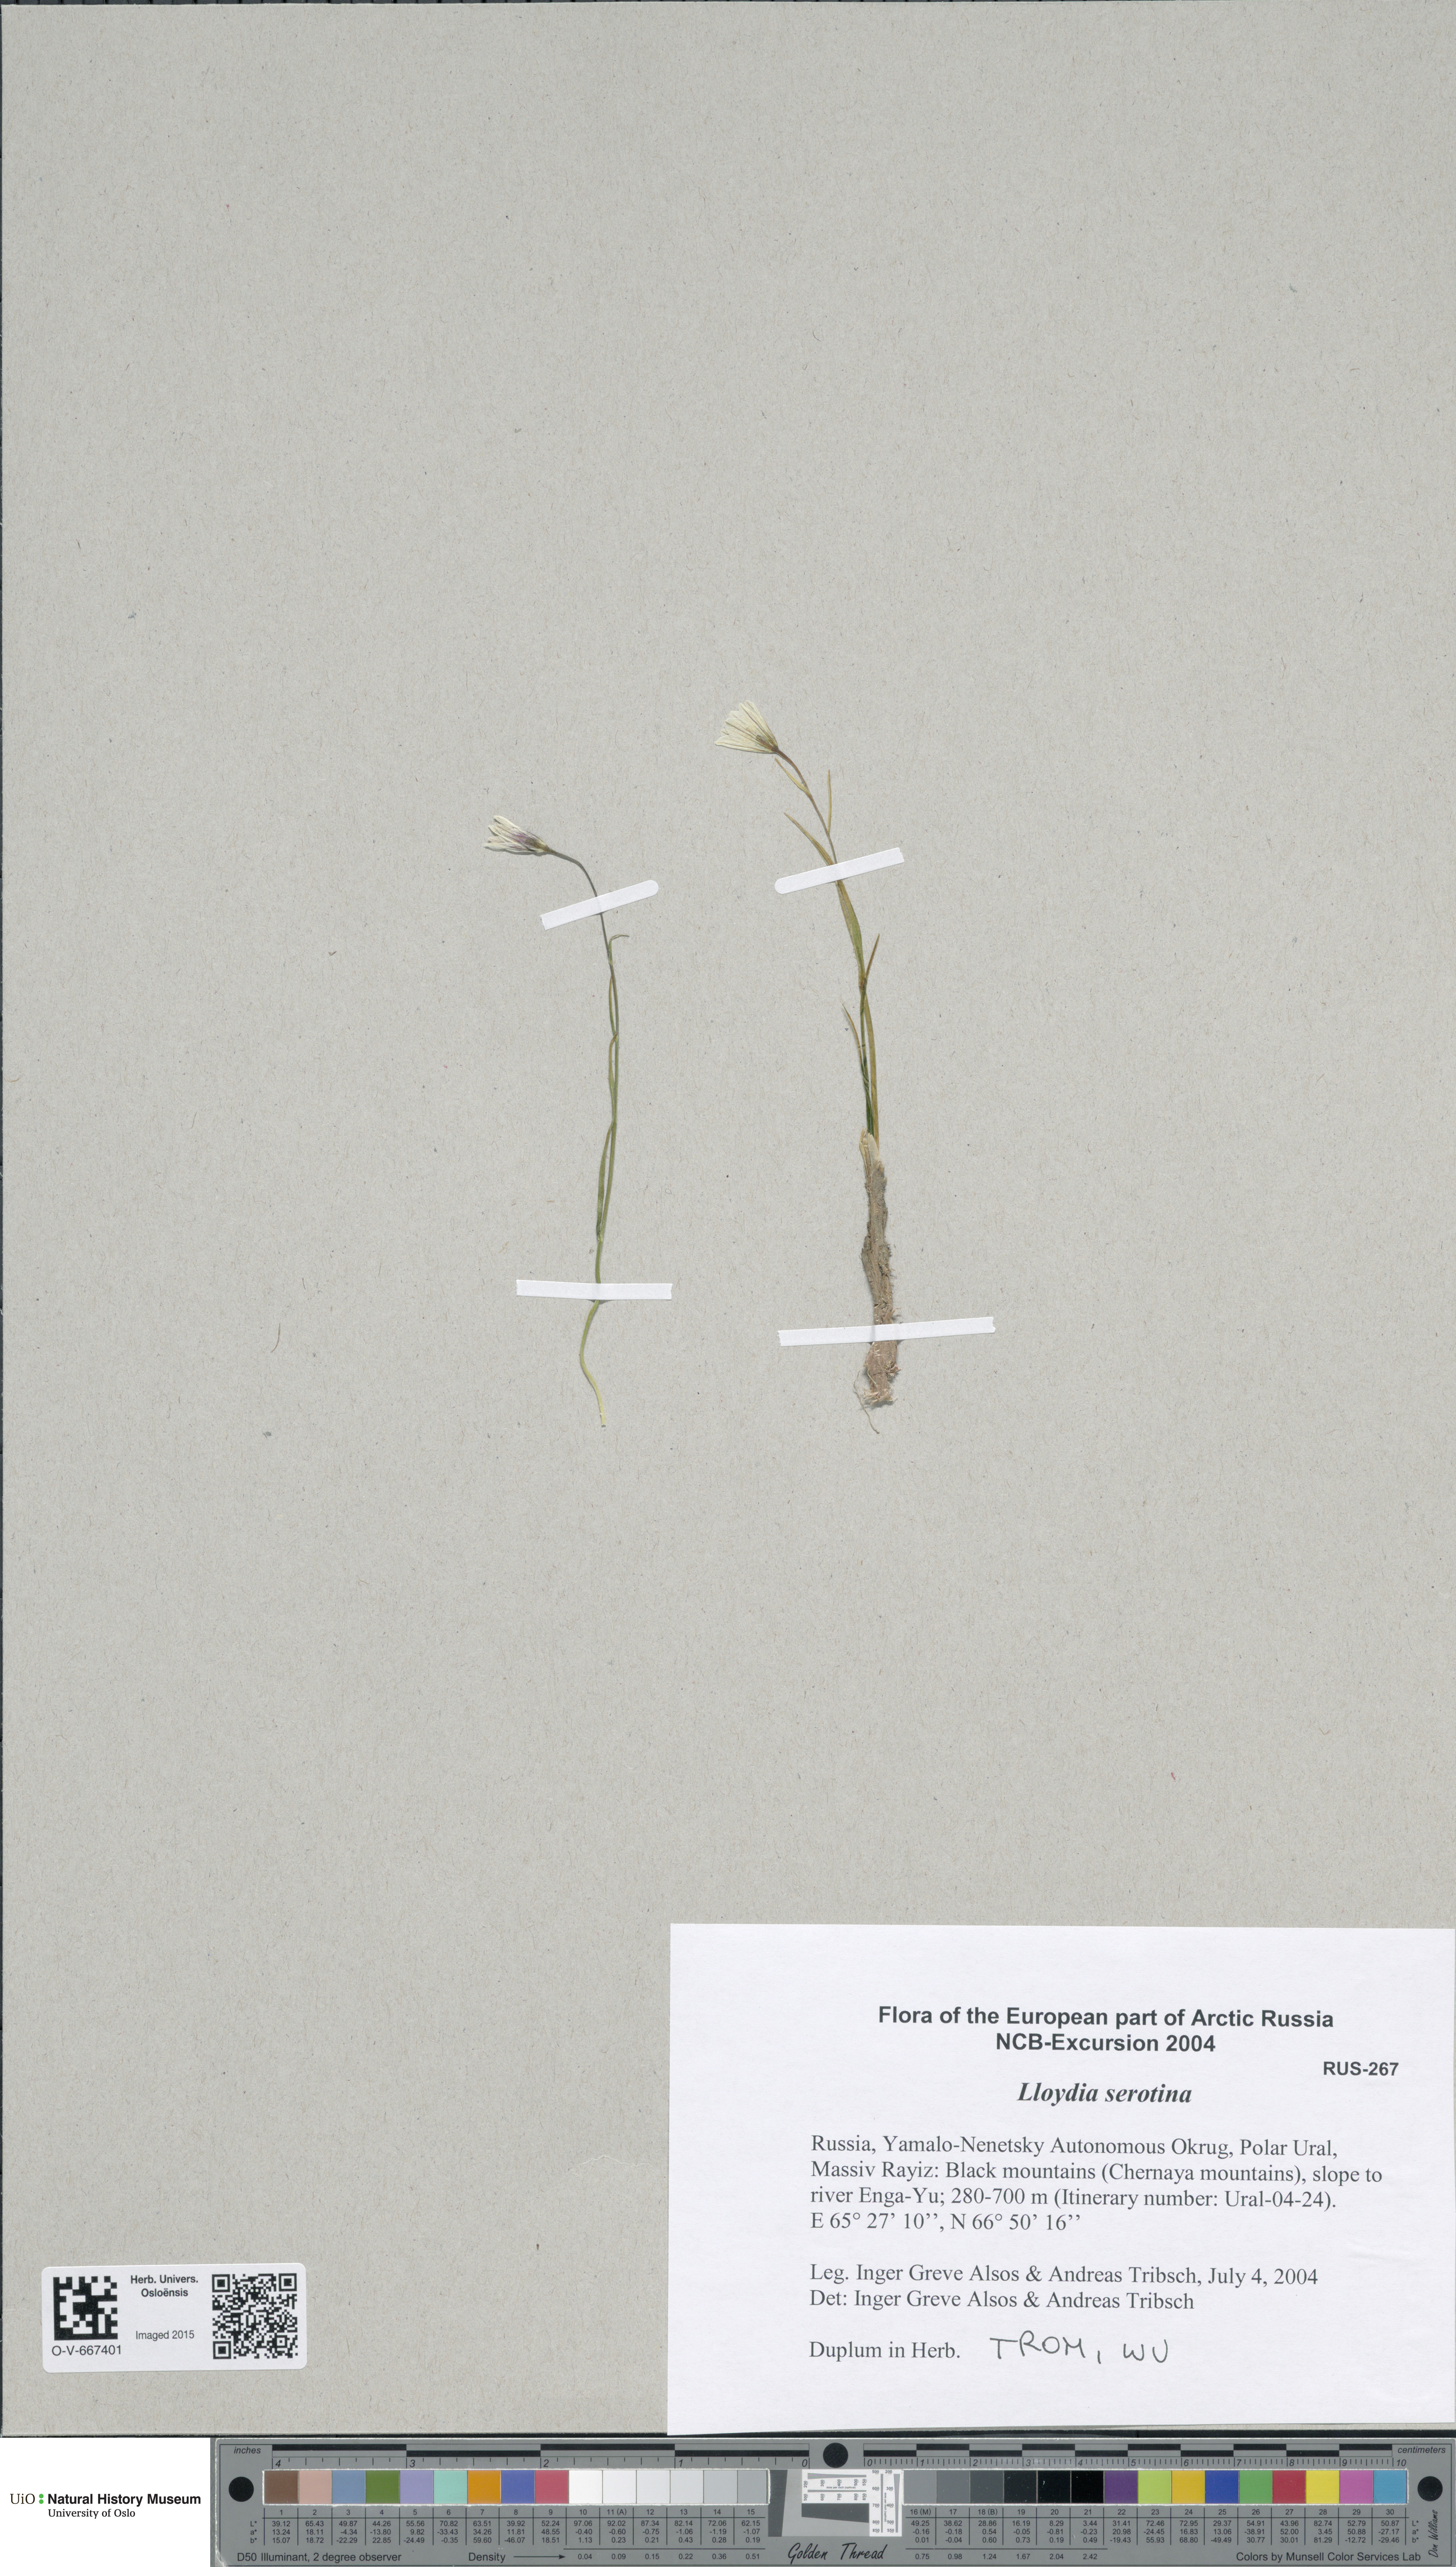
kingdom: Plantae
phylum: Tracheophyta
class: Liliopsida
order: Liliales
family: Liliaceae
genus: Gagea
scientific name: Gagea serotina
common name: Snowdon lily
